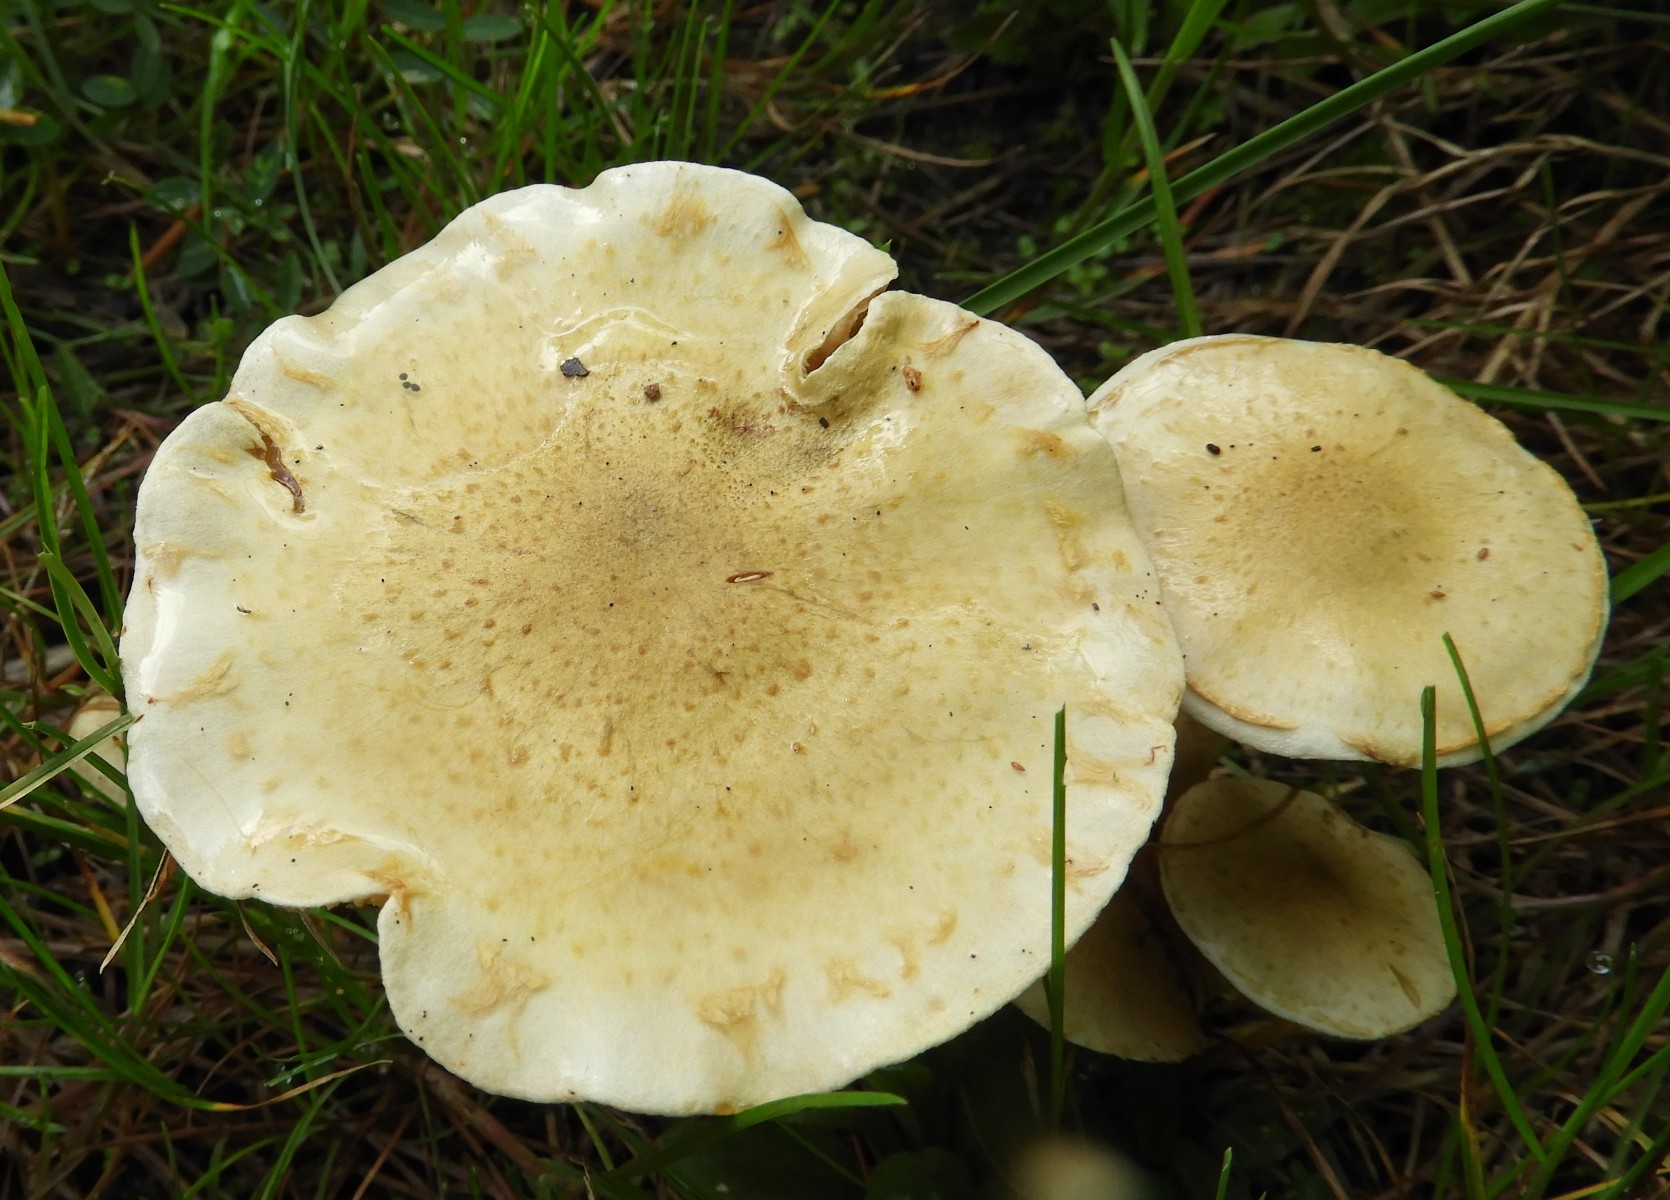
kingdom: Fungi
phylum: Basidiomycota
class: Agaricomycetes
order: Agaricales
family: Strophariaceae
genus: Pholiota
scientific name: Pholiota gummosa
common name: grøngul skælhat
